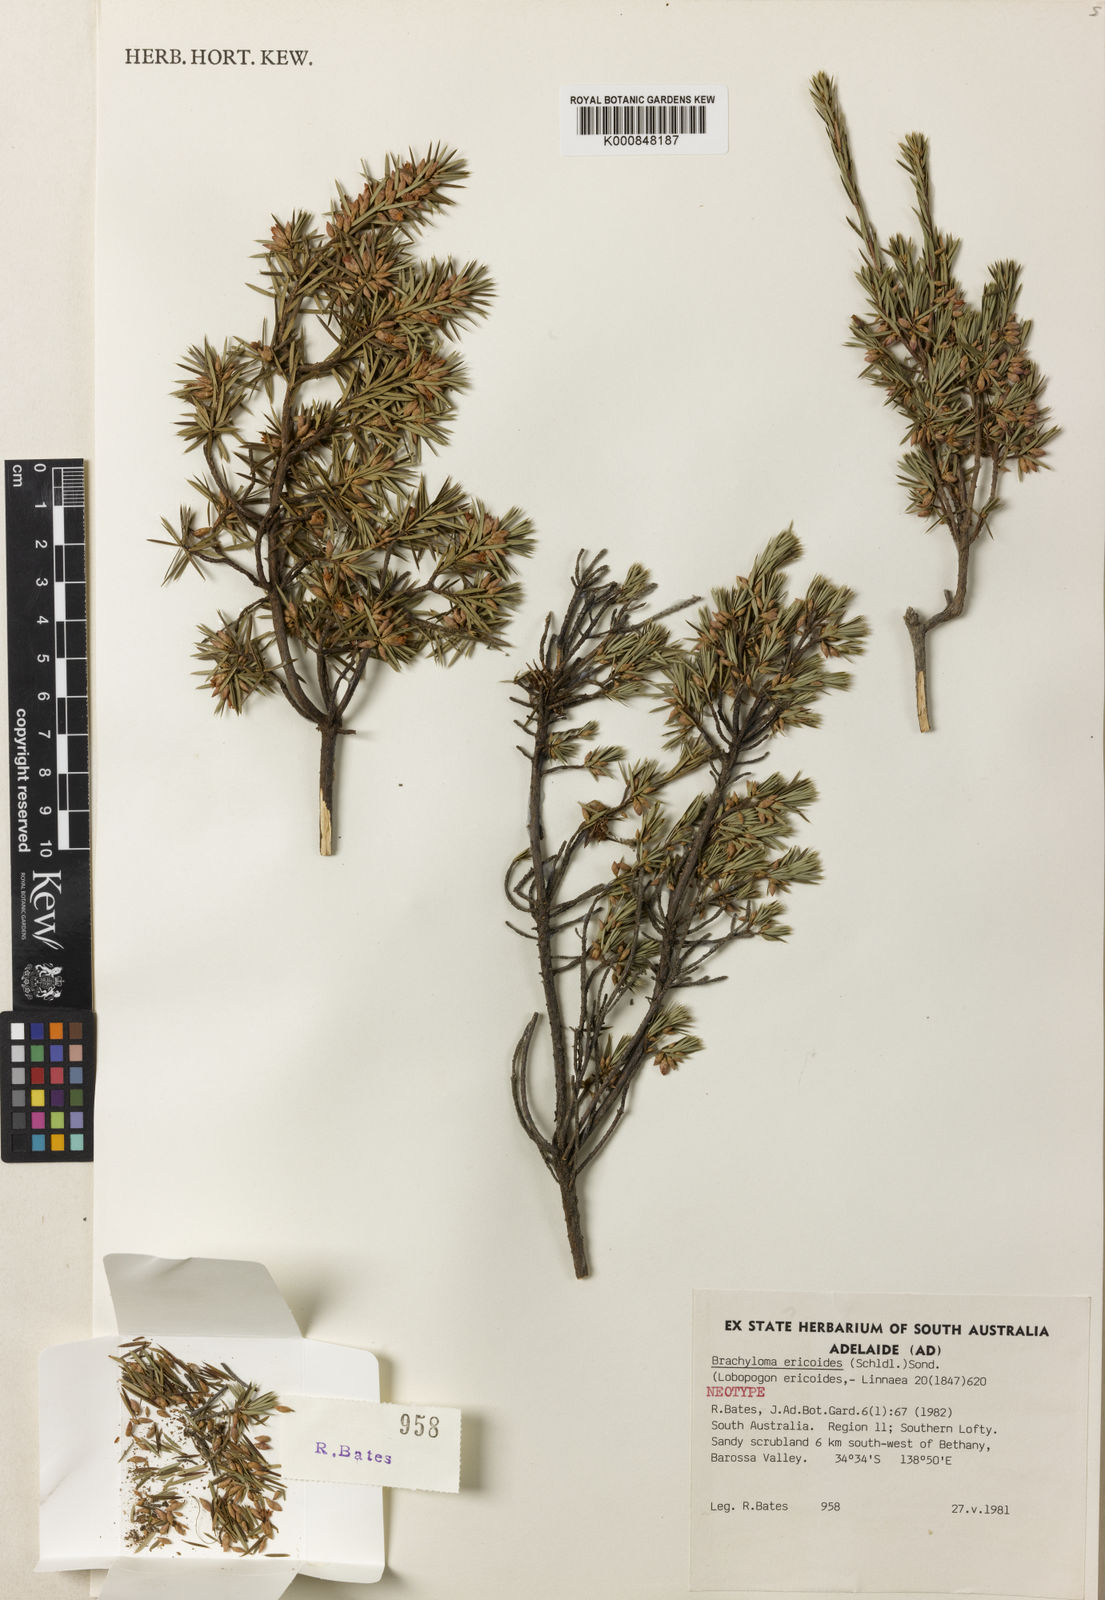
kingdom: Plantae
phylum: Tracheophyta
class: Magnoliopsida
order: Ericales
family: Ericaceae
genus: Brachyloma
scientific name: Brachyloma ericoides
